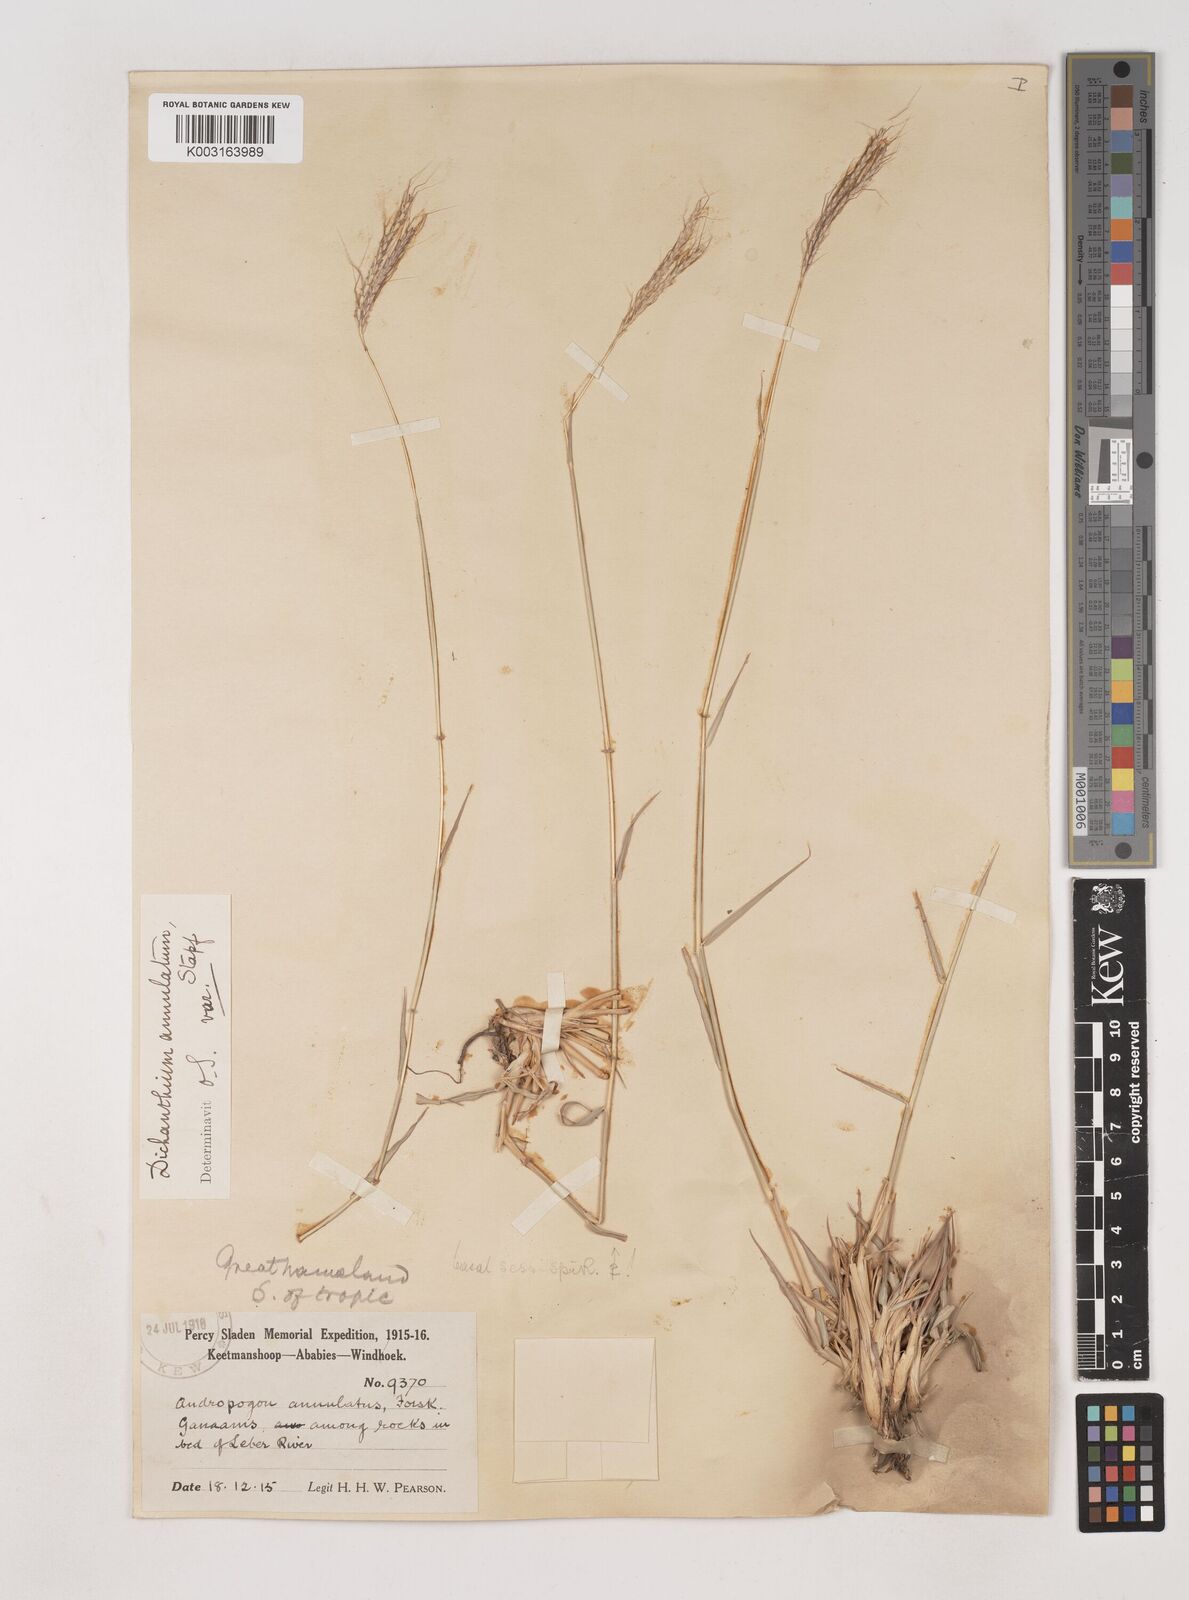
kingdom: Plantae
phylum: Tracheophyta
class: Liliopsida
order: Poales
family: Poaceae
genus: Dichanthium
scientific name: Dichanthium annulatum
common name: Kleberg's bluestem
